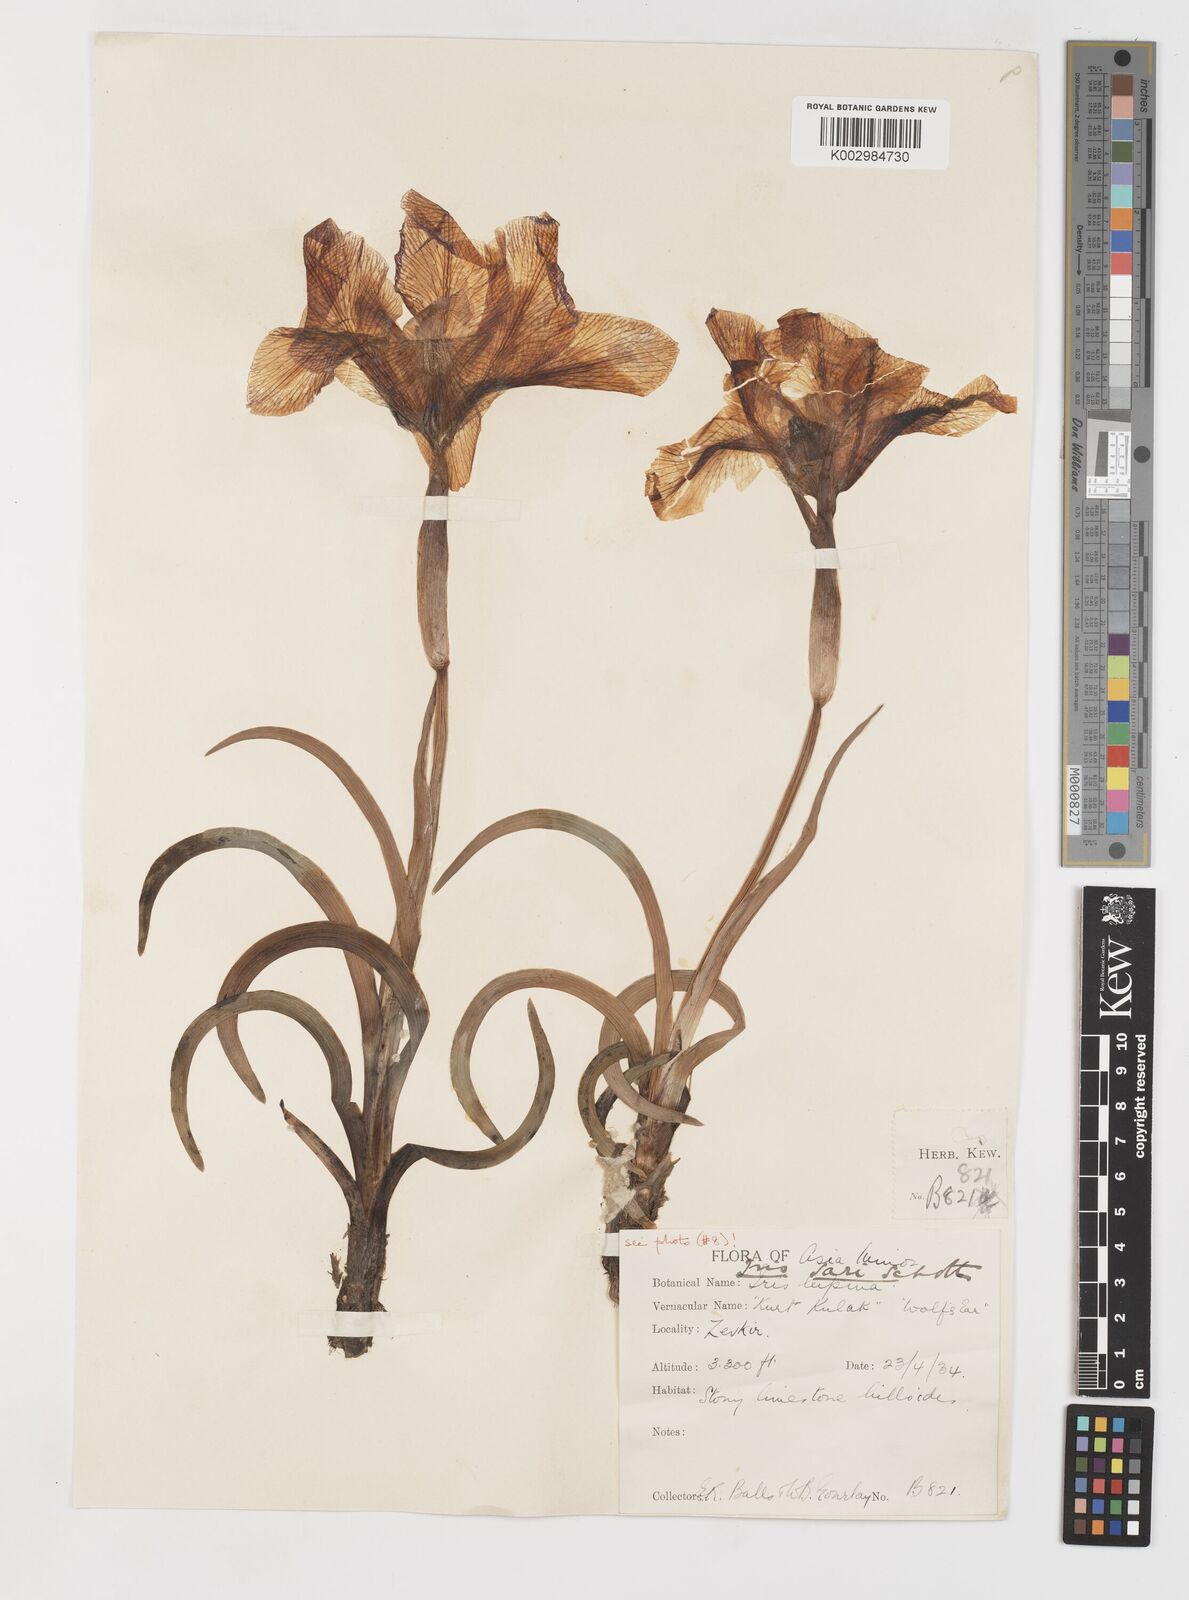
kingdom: Plantae
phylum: Tracheophyta
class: Liliopsida
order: Asparagales
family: Iridaceae
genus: Iris
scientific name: Iris sari
